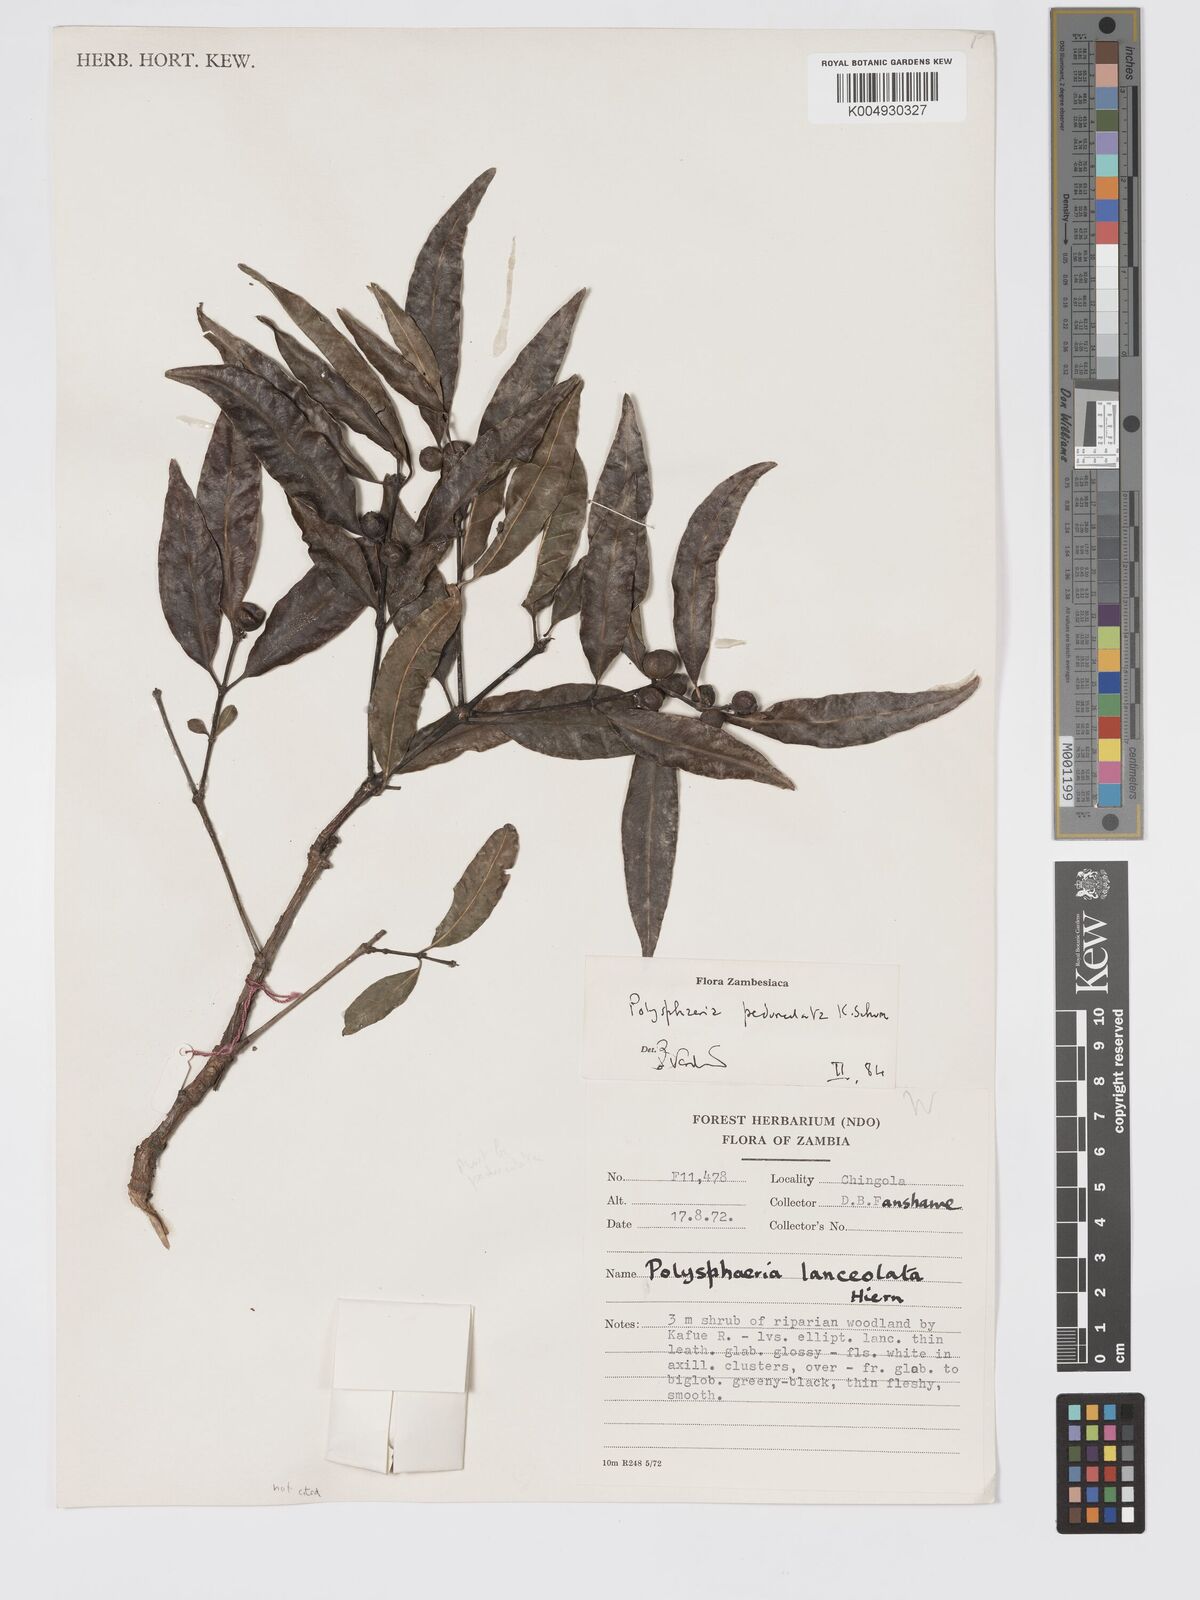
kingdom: Plantae
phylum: Tracheophyta
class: Magnoliopsida
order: Gentianales
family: Rubiaceae
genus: Polysphaeria
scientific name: Polysphaeria pedunculata
